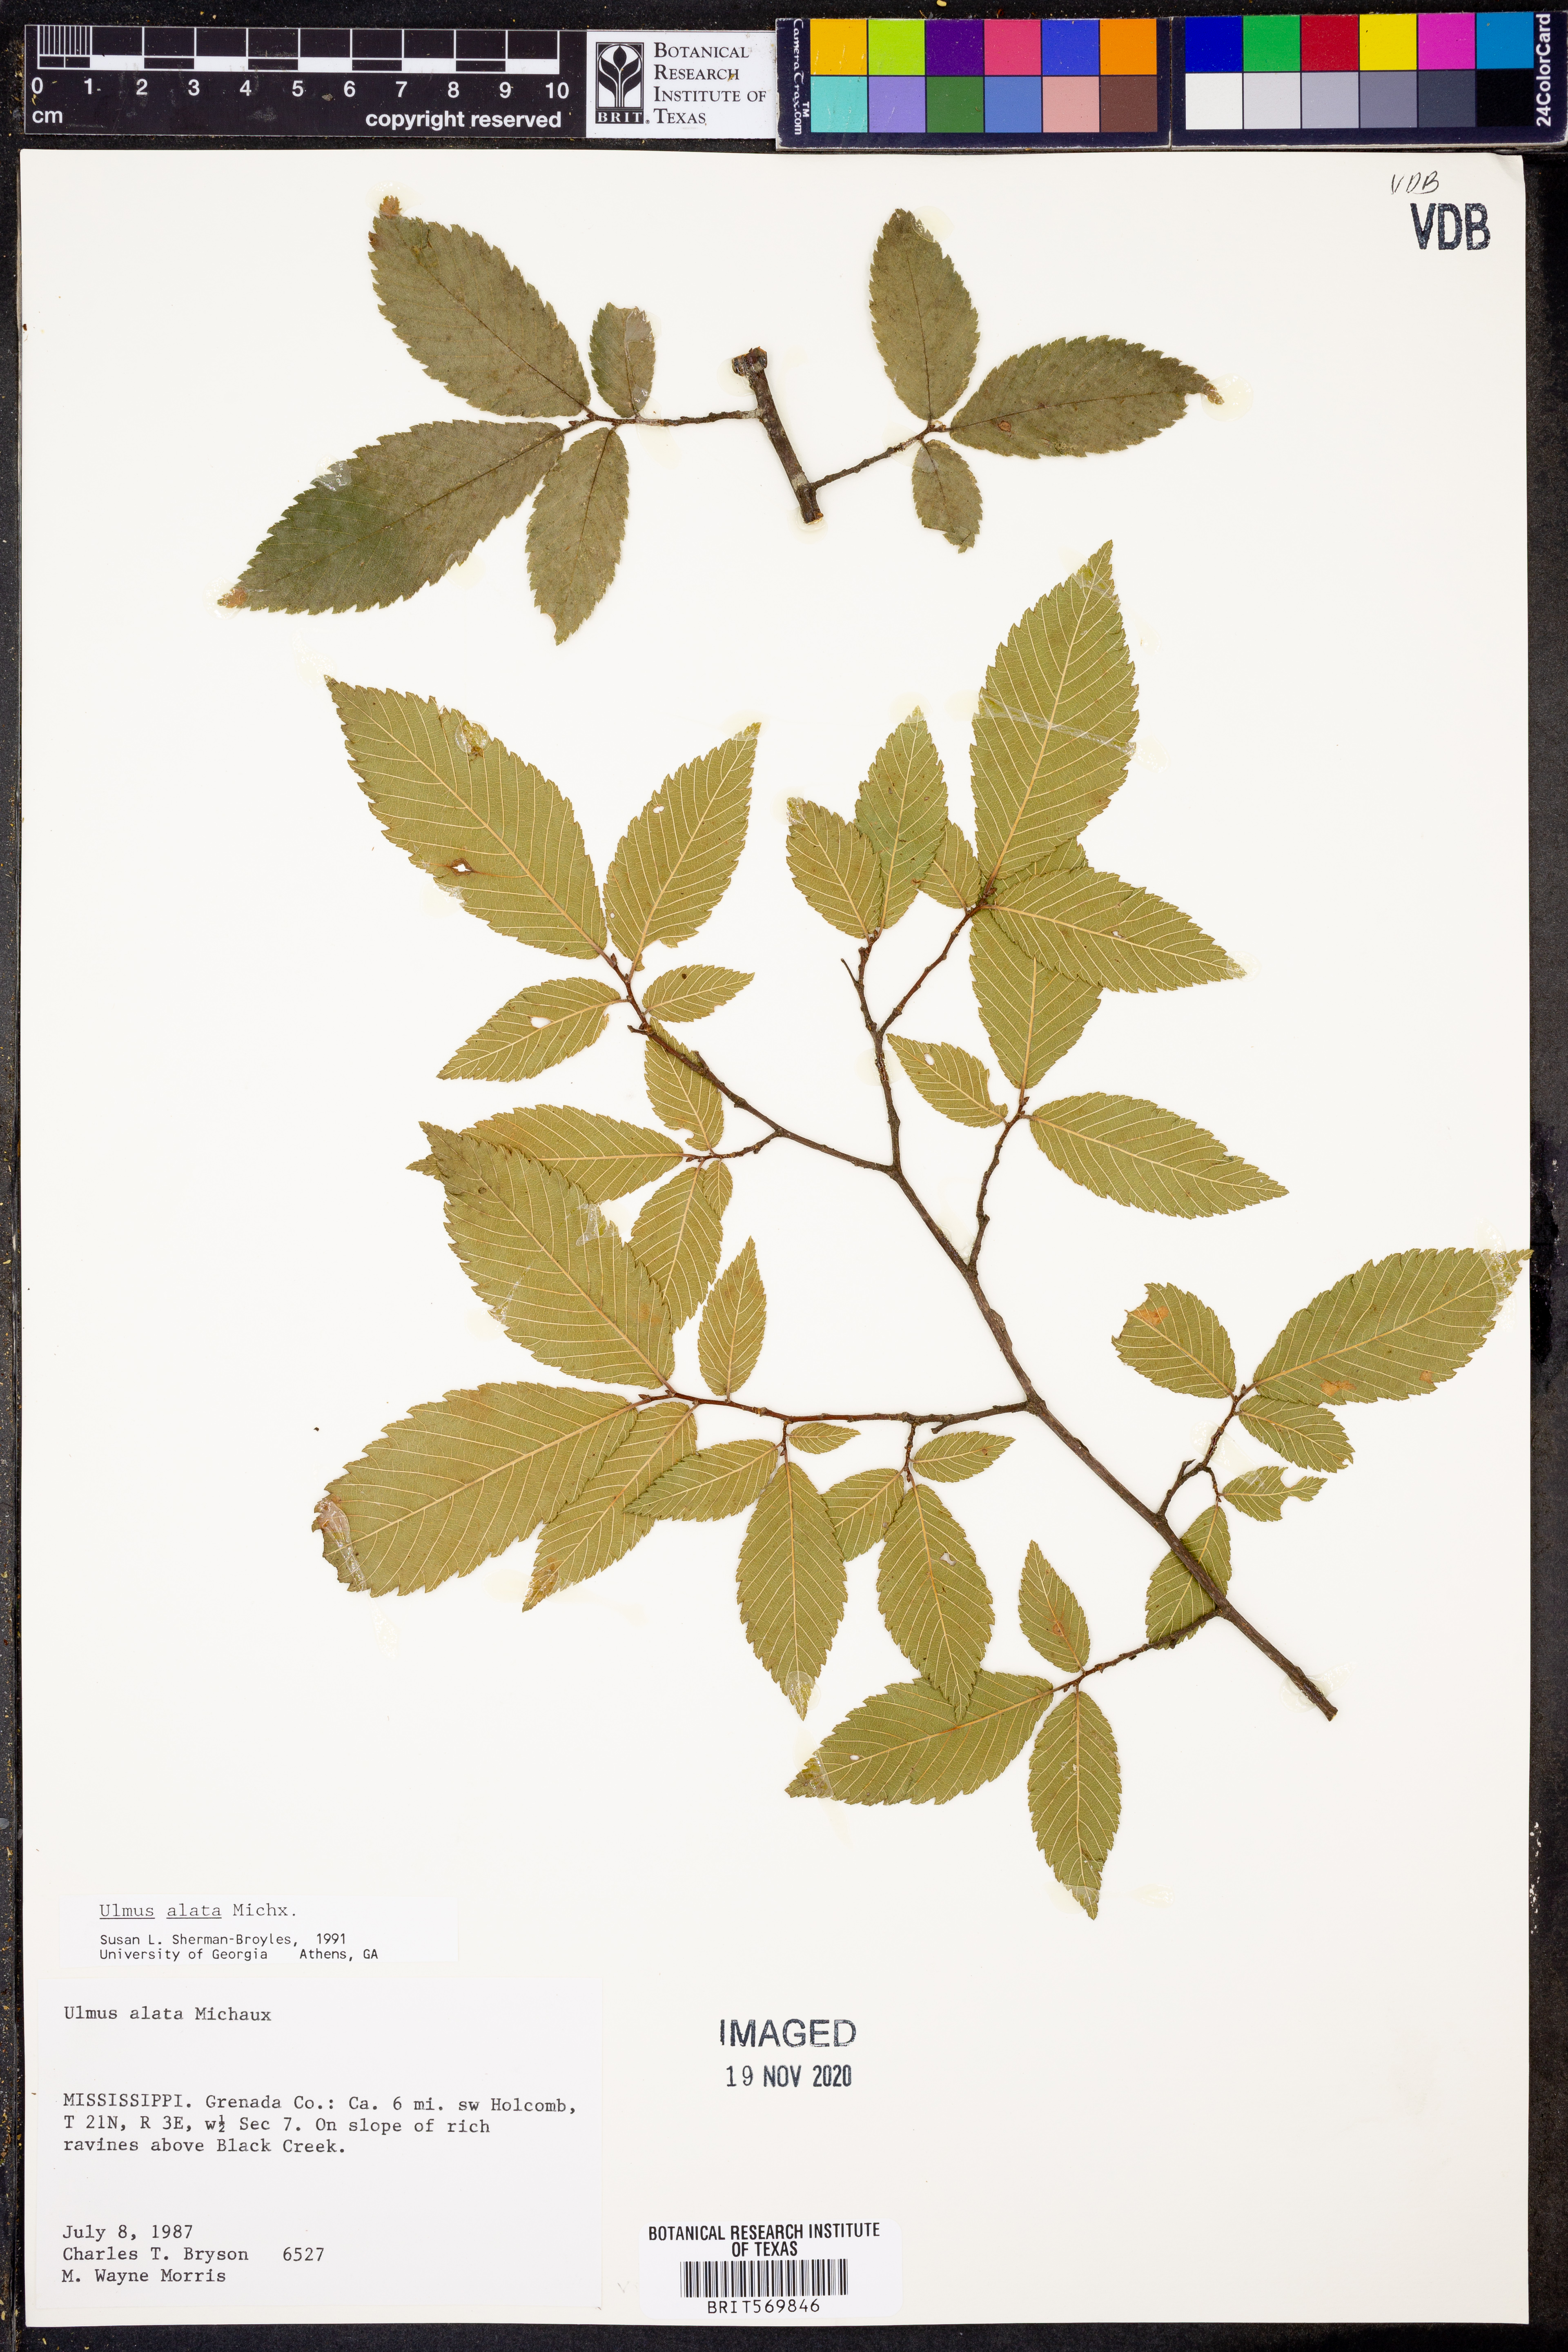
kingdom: Plantae
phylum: Tracheophyta
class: Magnoliopsida
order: Rosales
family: Ulmaceae
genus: Ulmus
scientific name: Ulmus alata
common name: Winged elm
